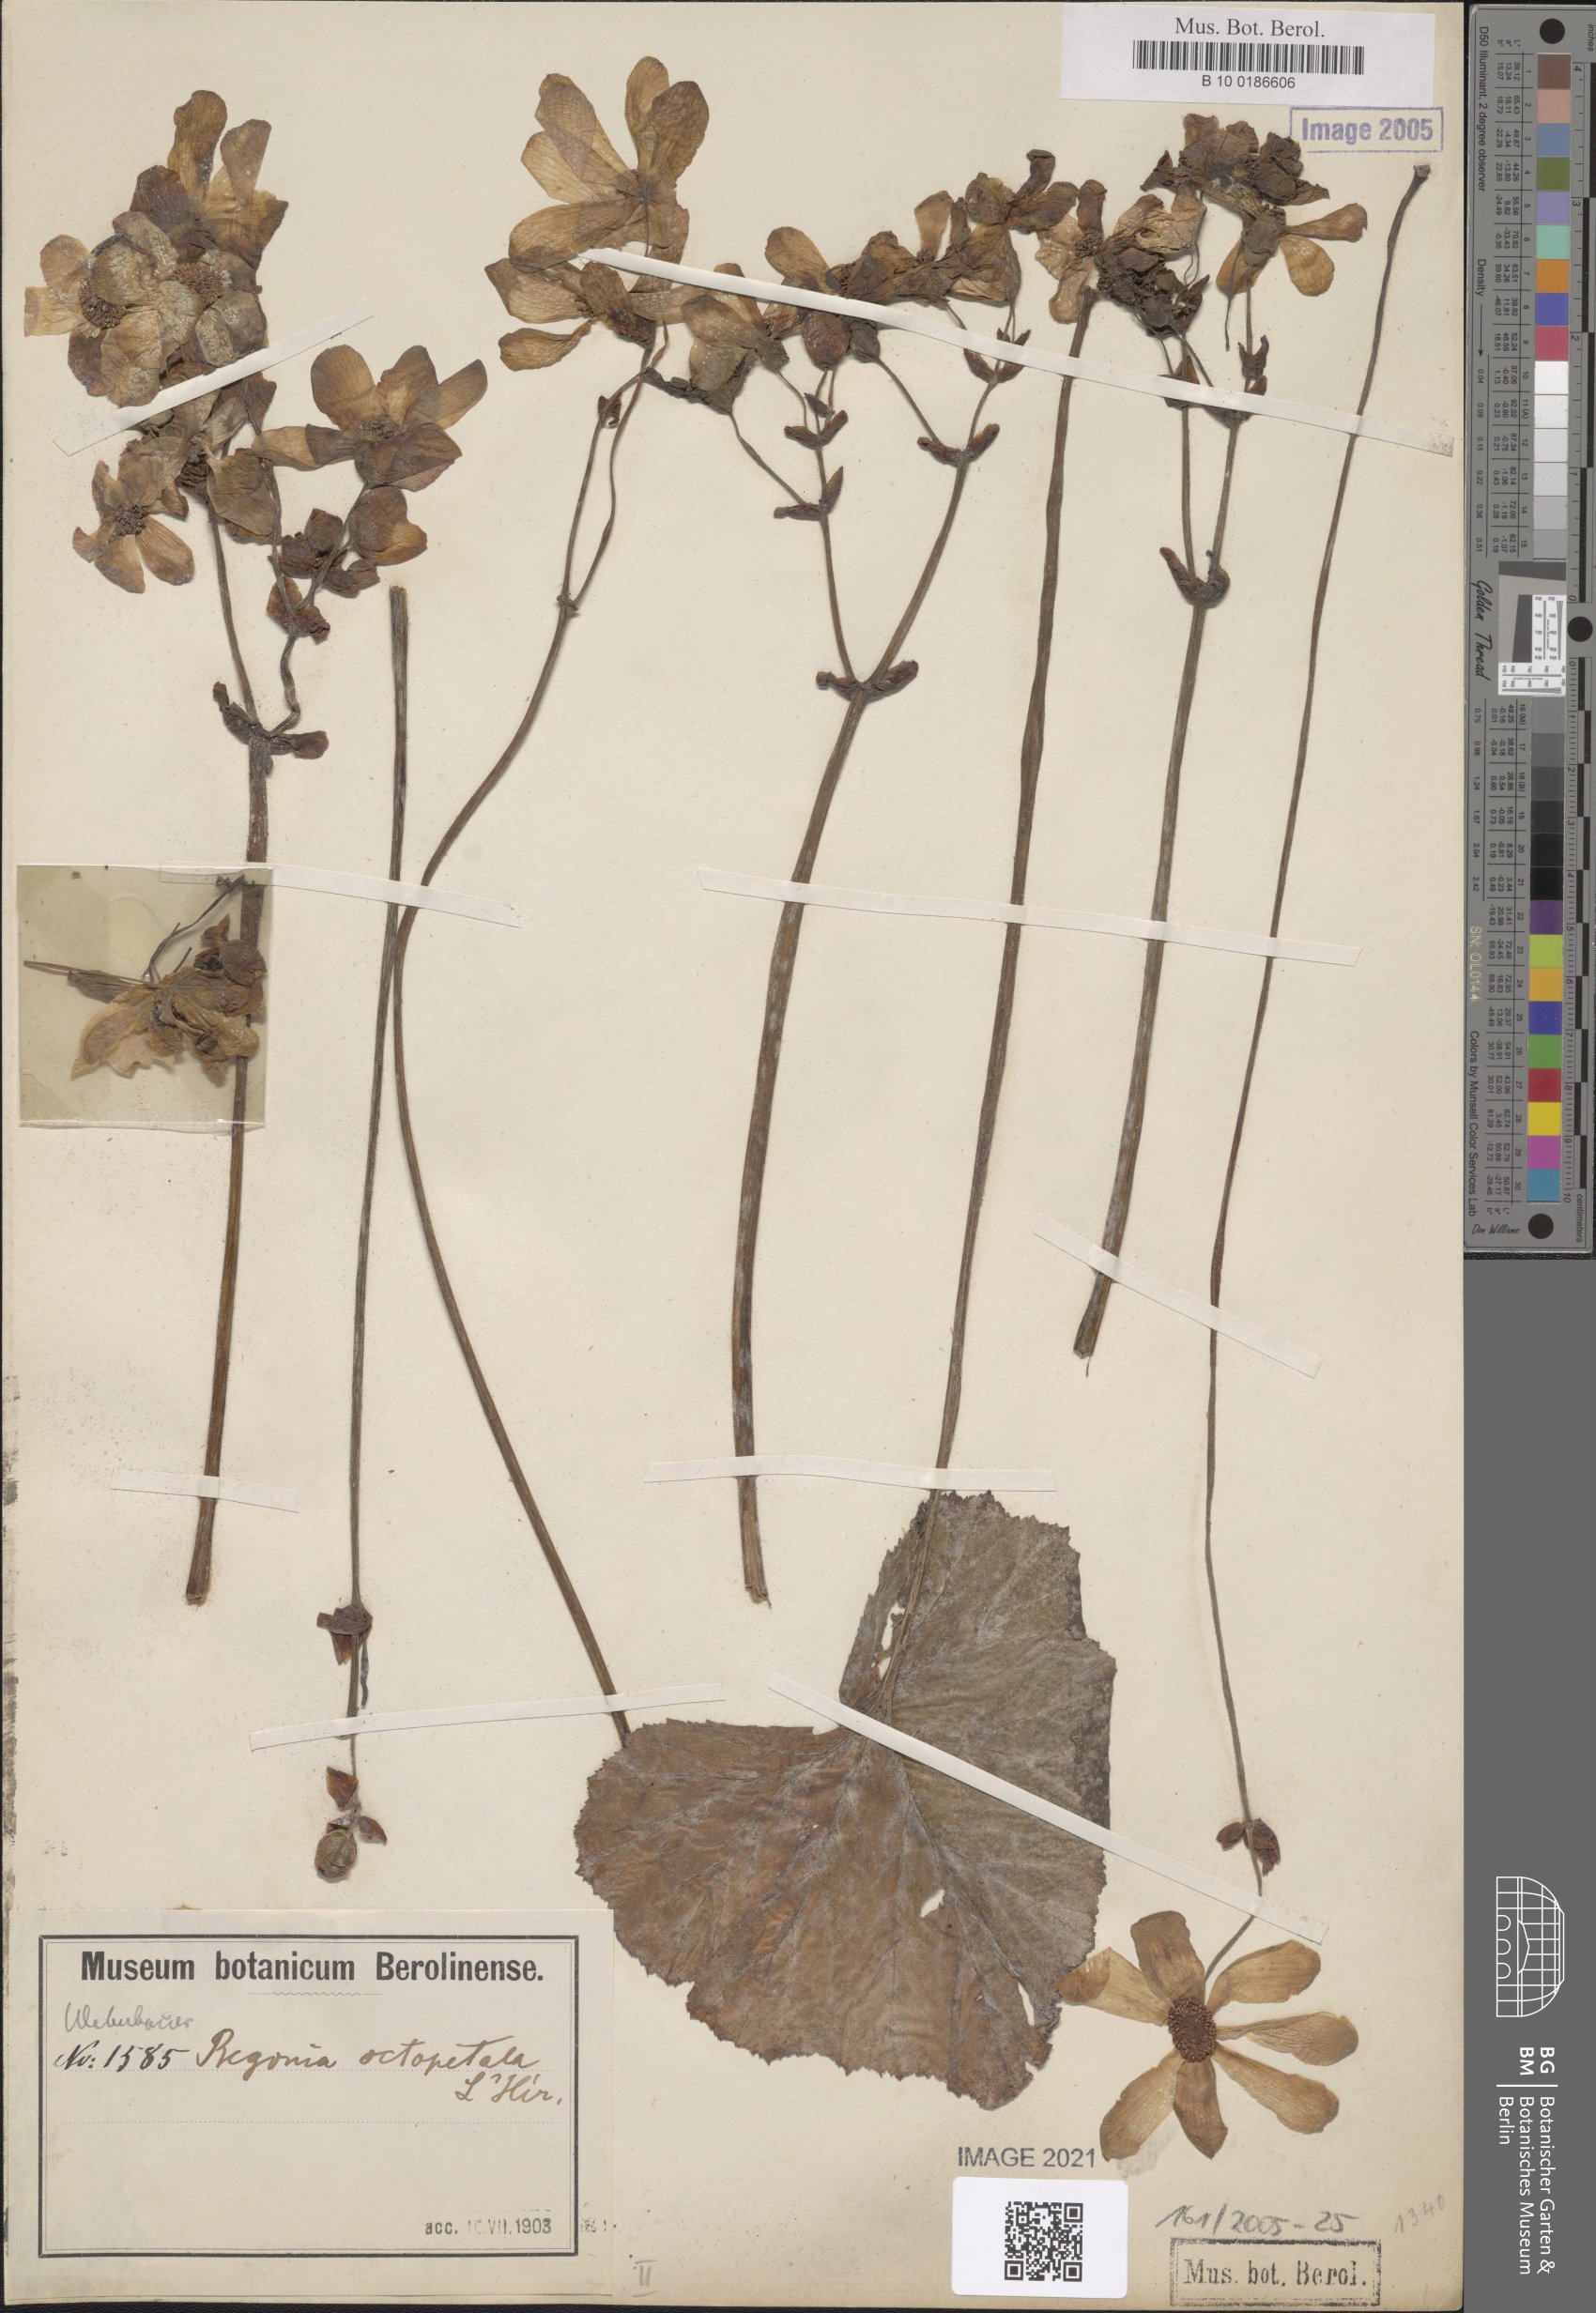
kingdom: Plantae
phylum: Tracheophyta
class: Magnoliopsida
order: Cucurbitales
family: Begoniaceae
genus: Begonia
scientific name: Begonia octopetala
